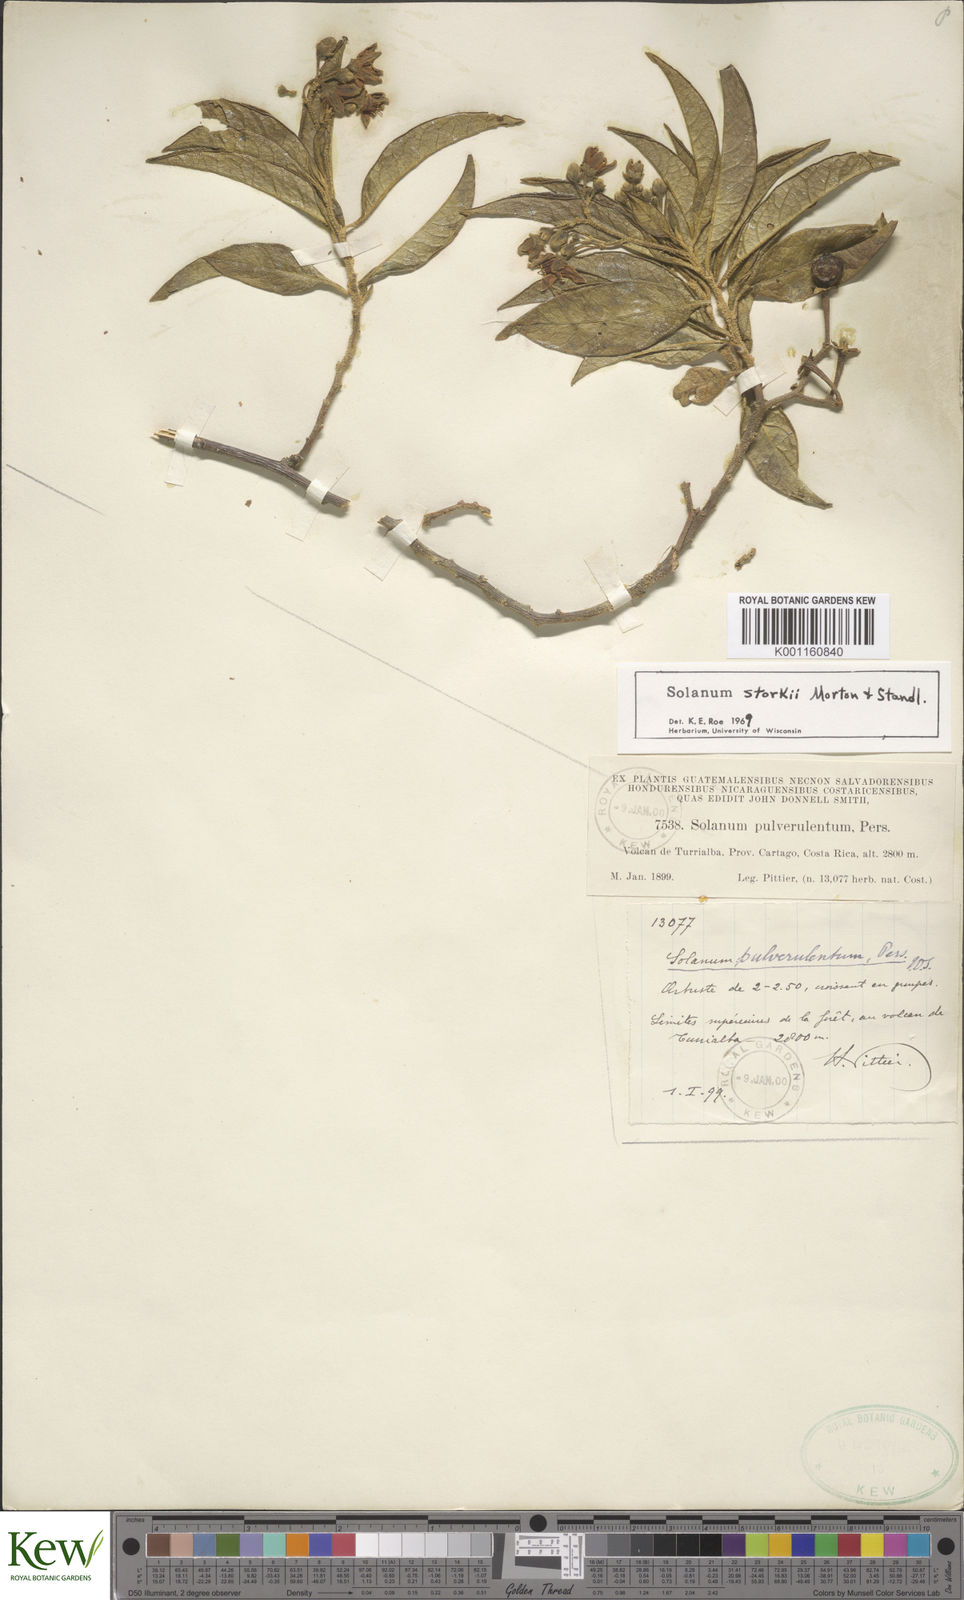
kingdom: Plantae
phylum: Tracheophyta
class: Magnoliopsida
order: Solanales
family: Solanaceae
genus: Solanum
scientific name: Solanum storkii
